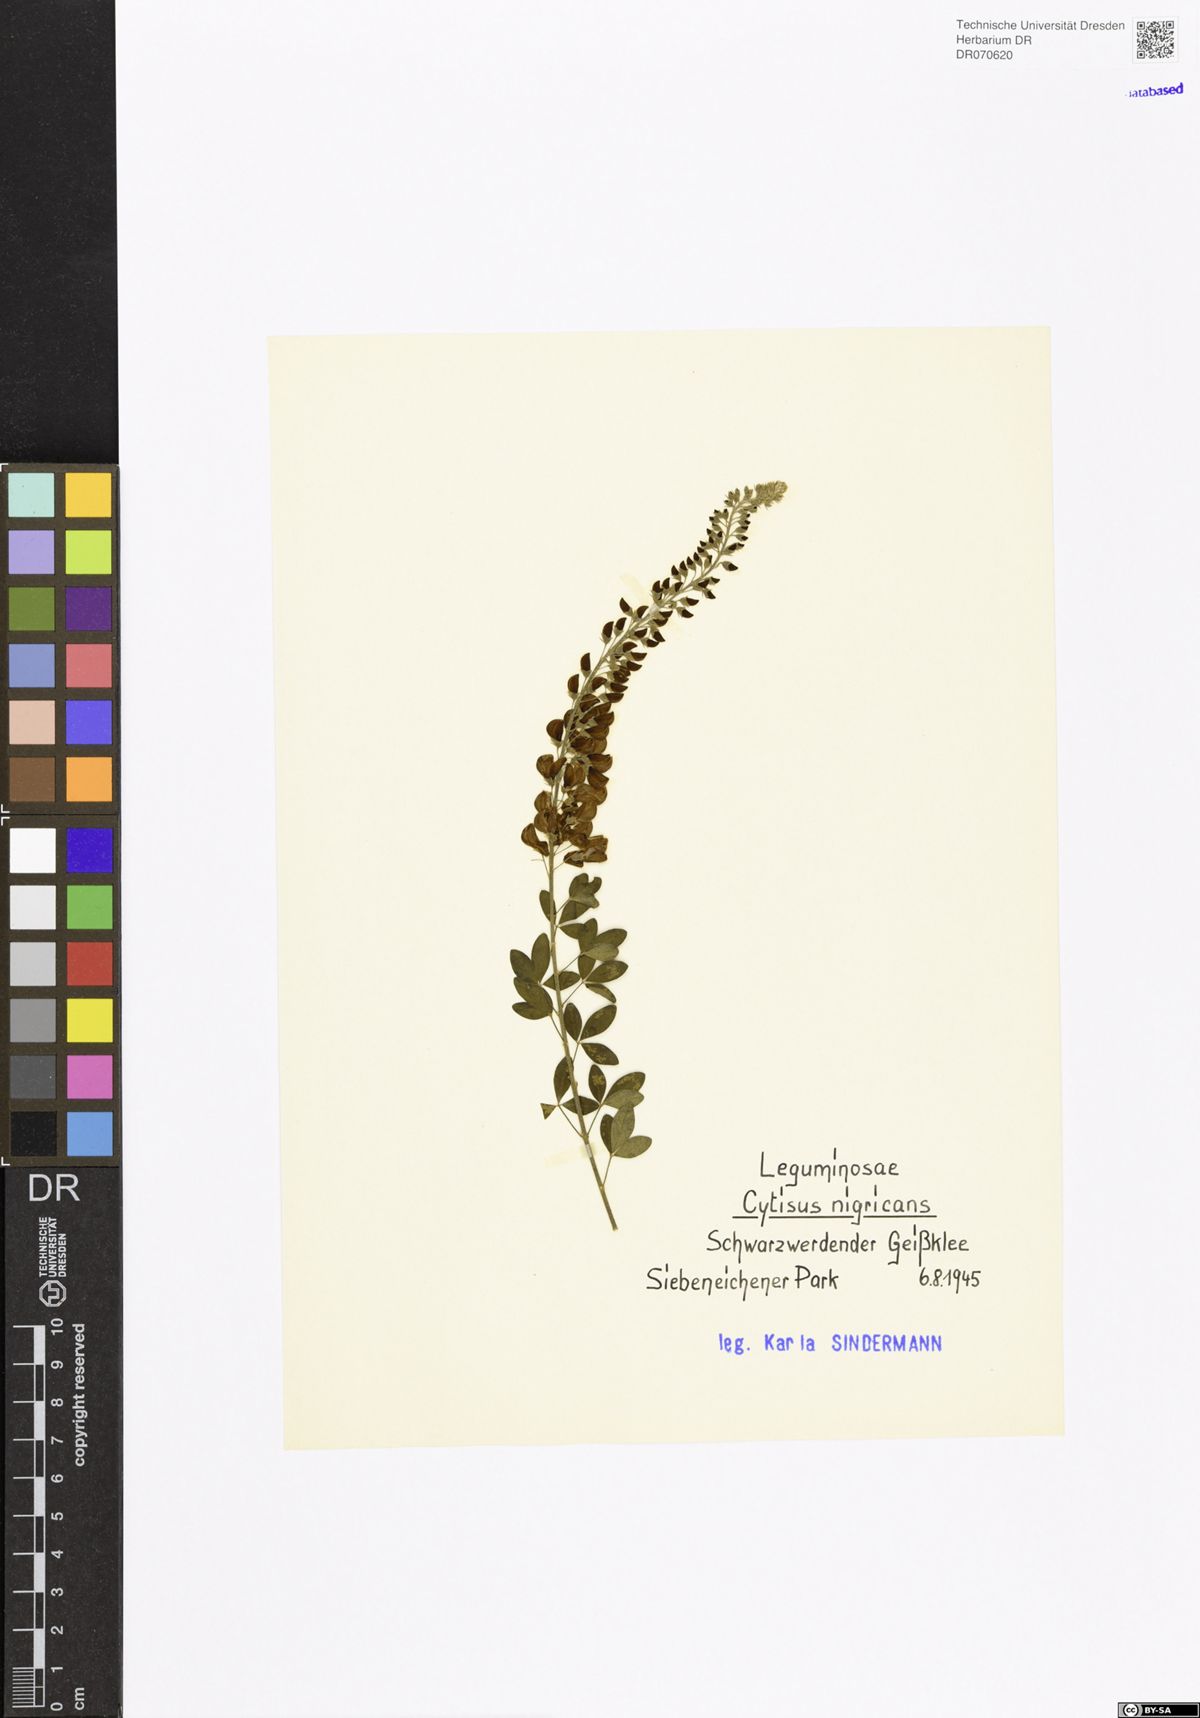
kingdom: Plantae
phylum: Tracheophyta
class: Magnoliopsida
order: Fabales
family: Fabaceae
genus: Cytisus
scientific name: Cytisus nigricans
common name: Black broom
